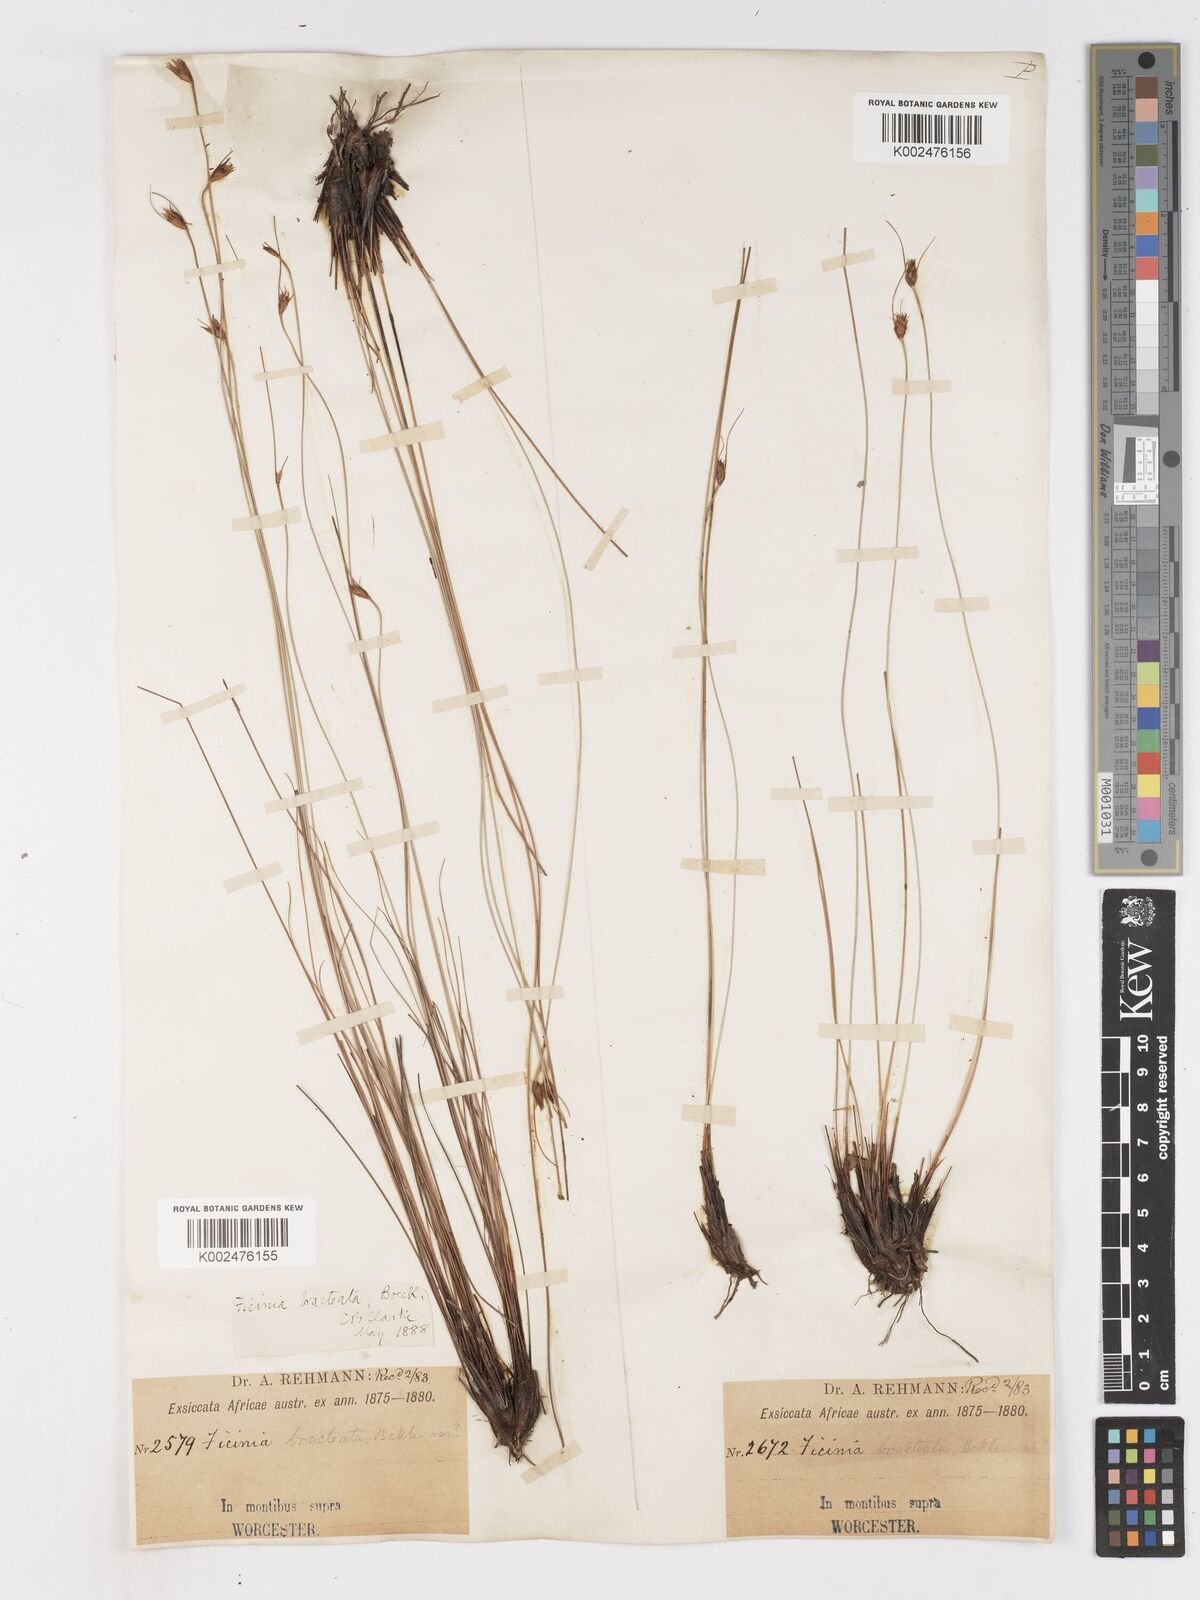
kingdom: Plantae
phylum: Tracheophyta
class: Liliopsida
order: Poales
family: Cyperaceae
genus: Ficinia
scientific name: Ficinia nigrescens
